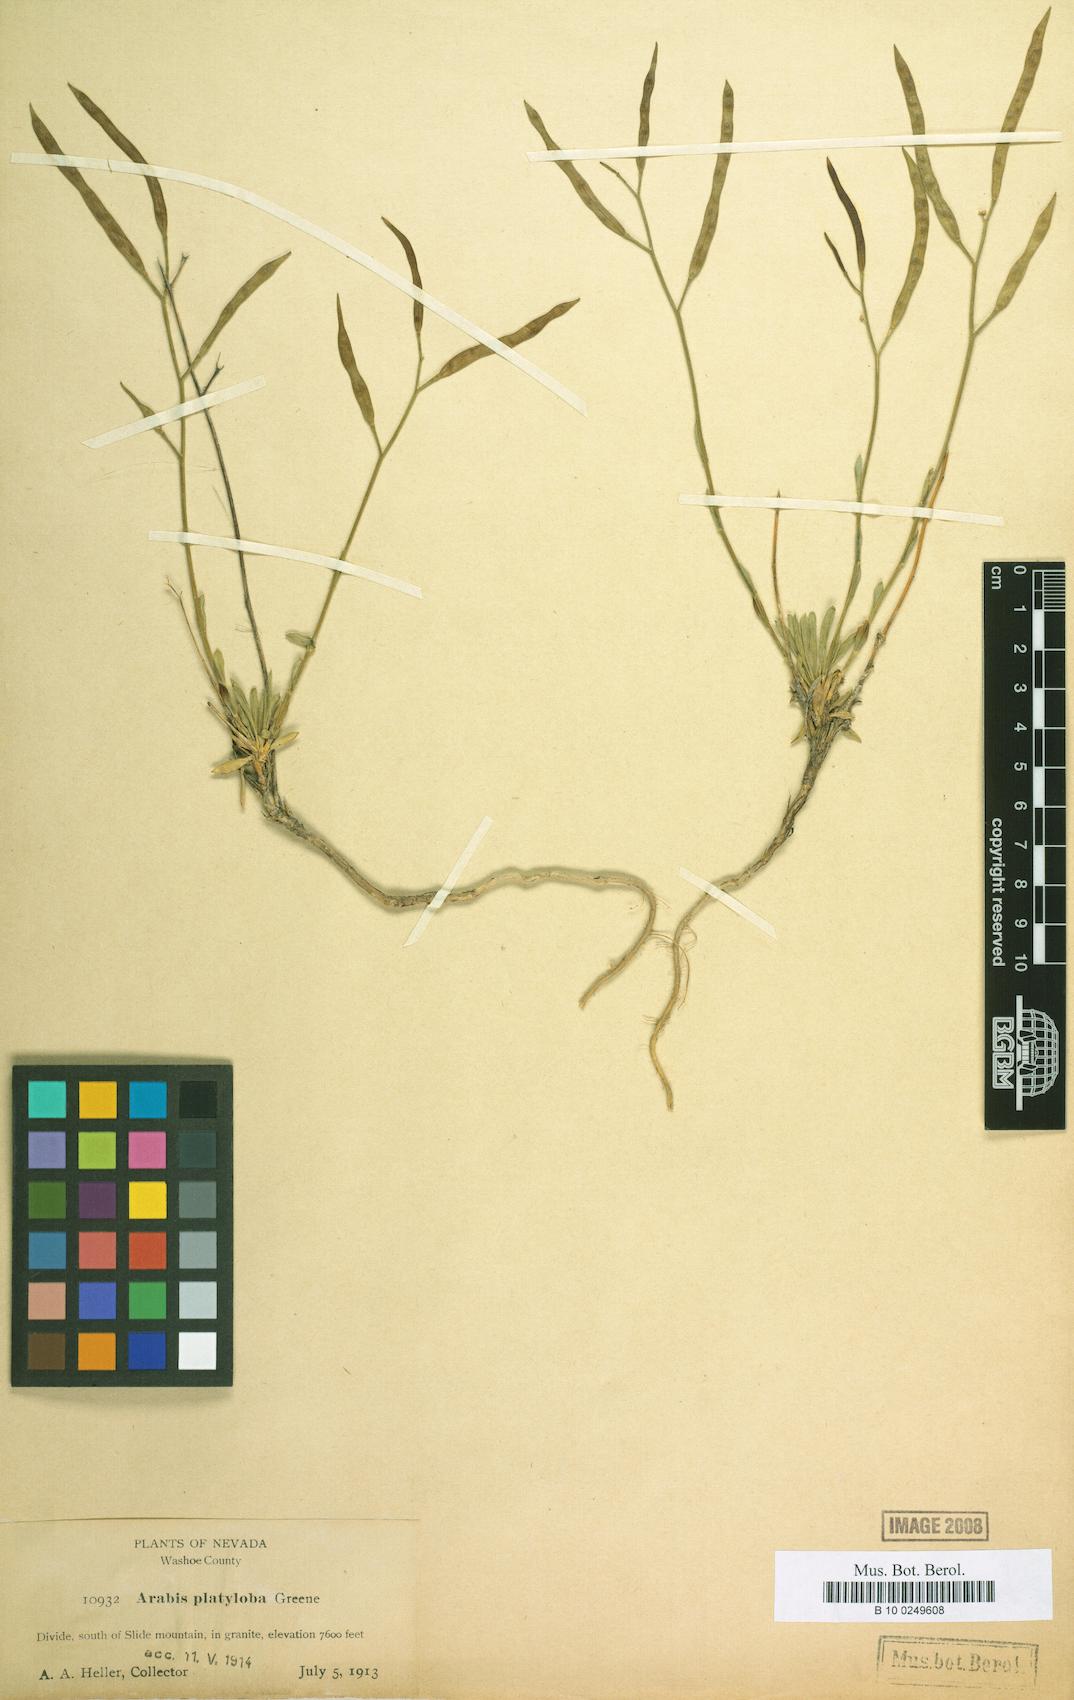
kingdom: Plantae
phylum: Tracheophyta
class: Magnoliopsida
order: Brassicales
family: Brassicaceae
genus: Boechera
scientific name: Boechera howellii
